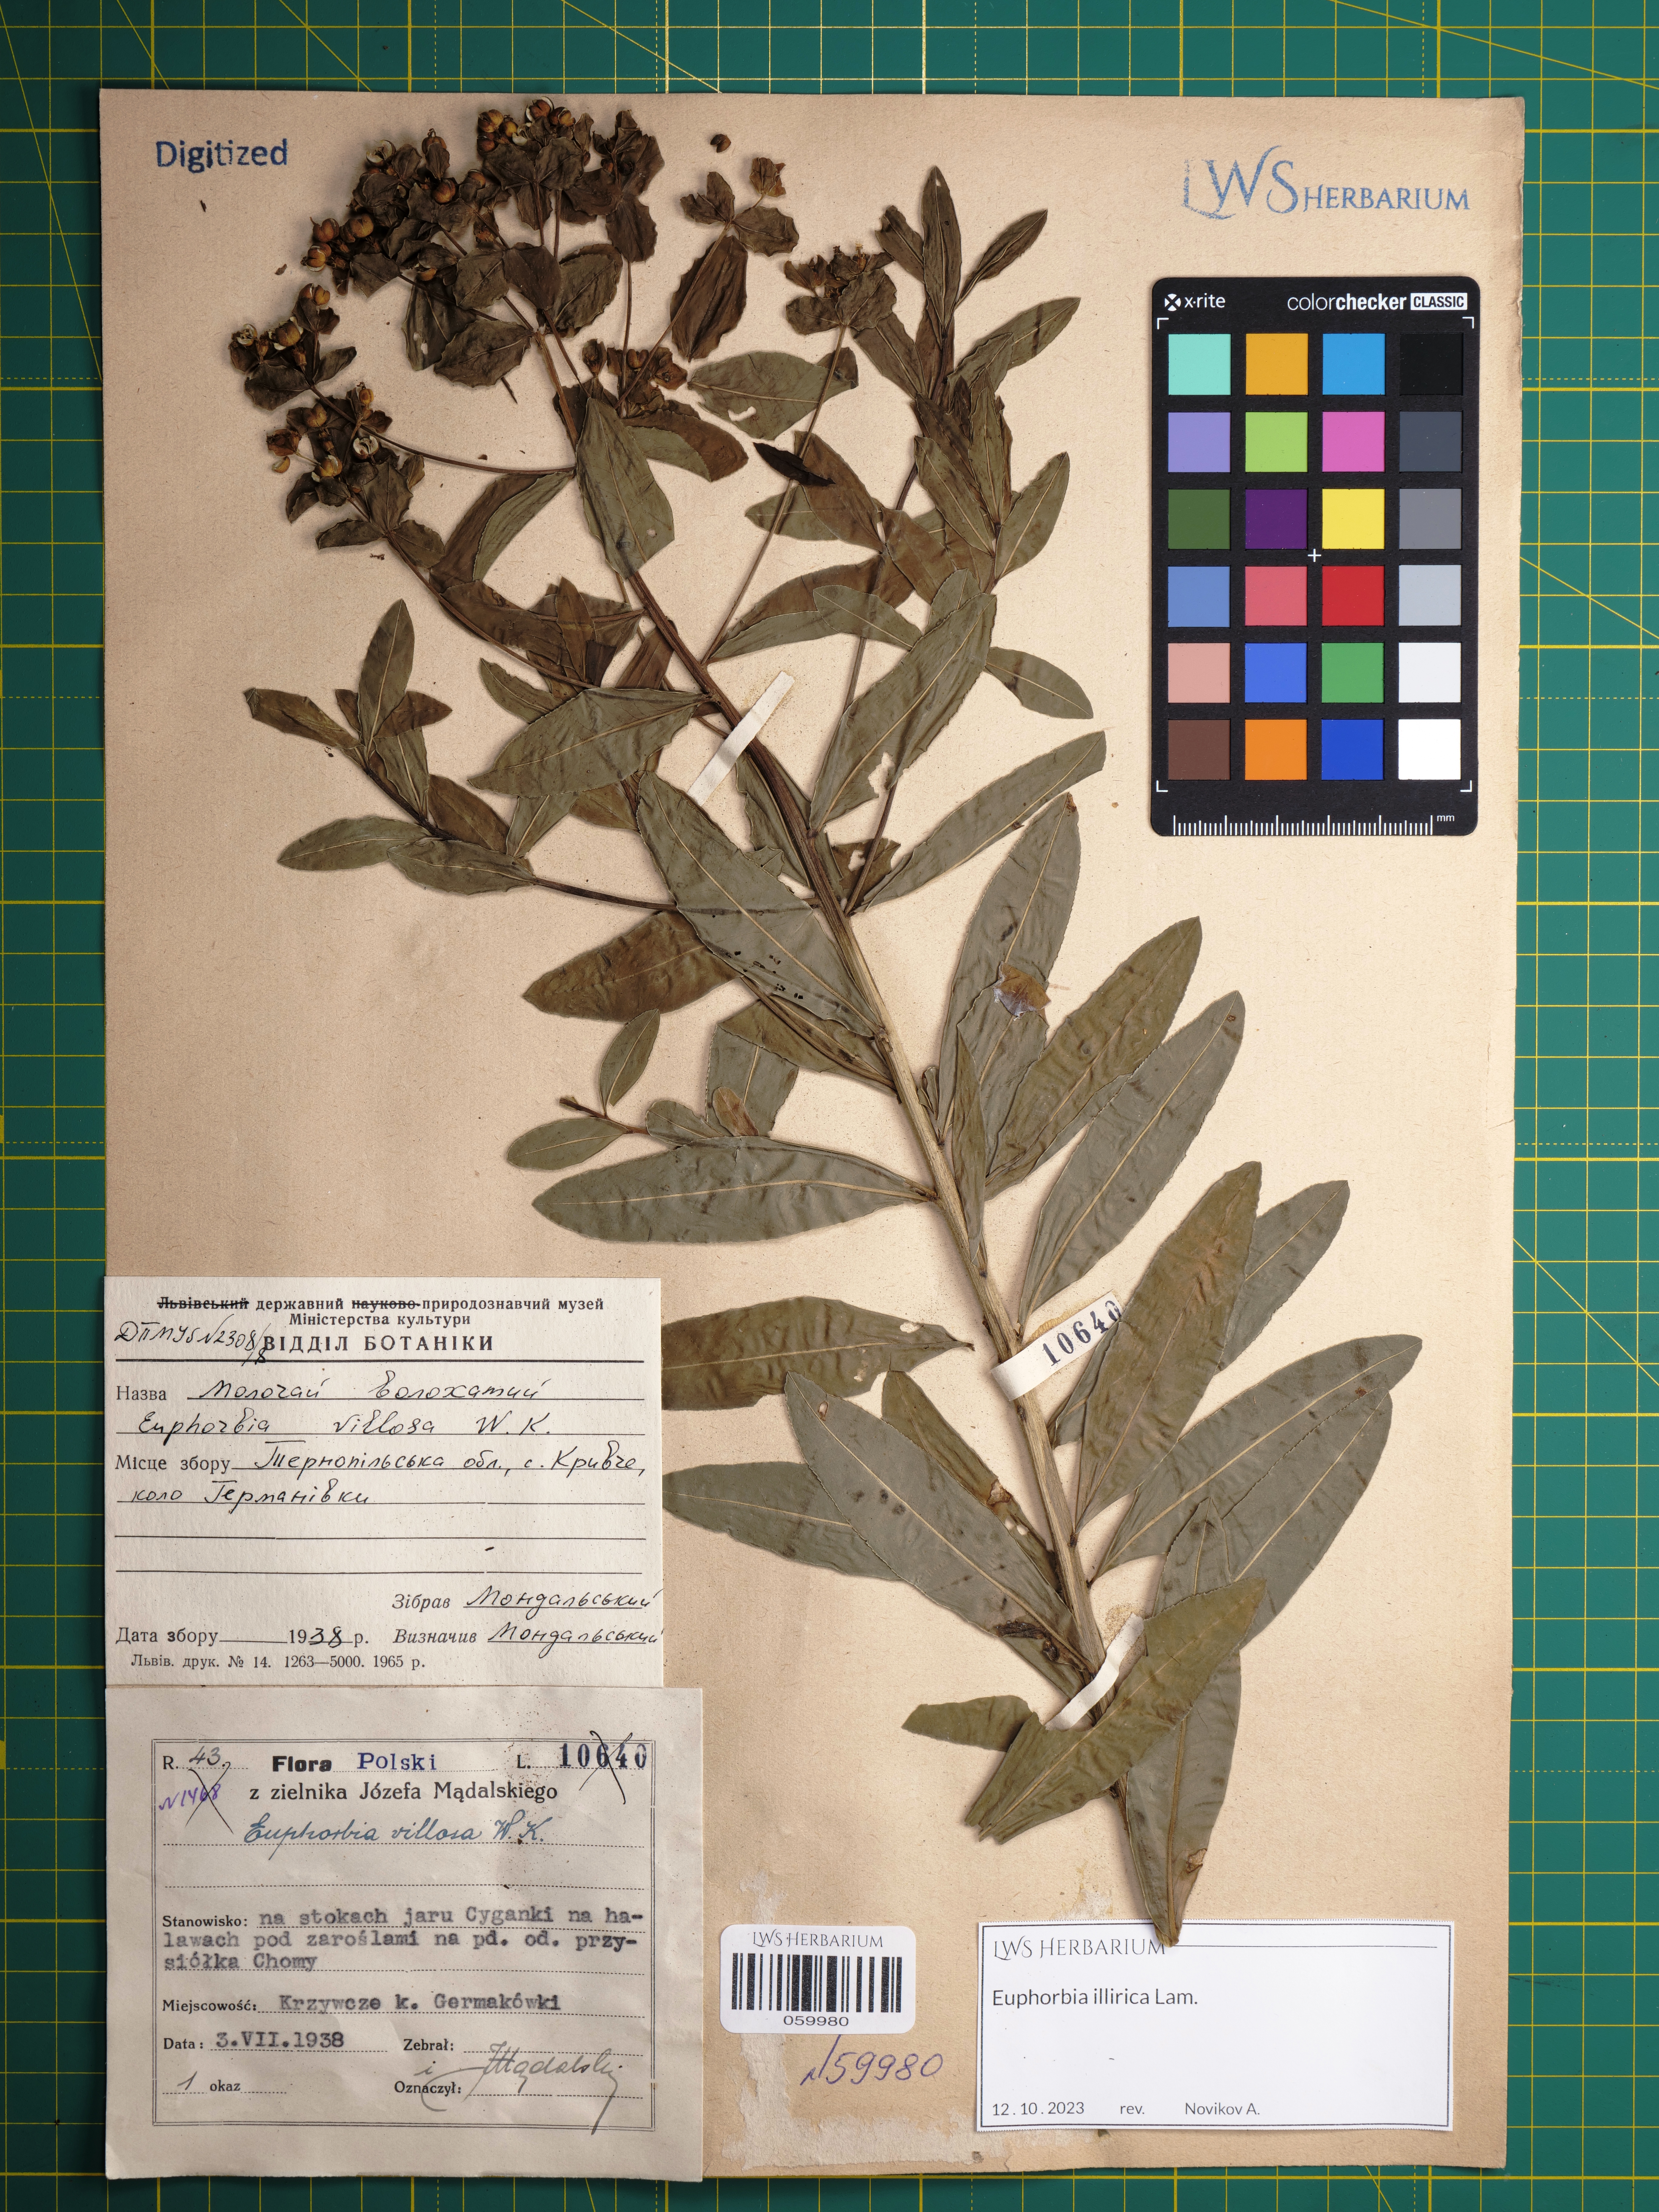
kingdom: Plantae
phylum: Tracheophyta
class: Magnoliopsida
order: Malpighiales
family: Euphorbiaceae
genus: Euphorbia
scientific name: Euphorbia illirica
